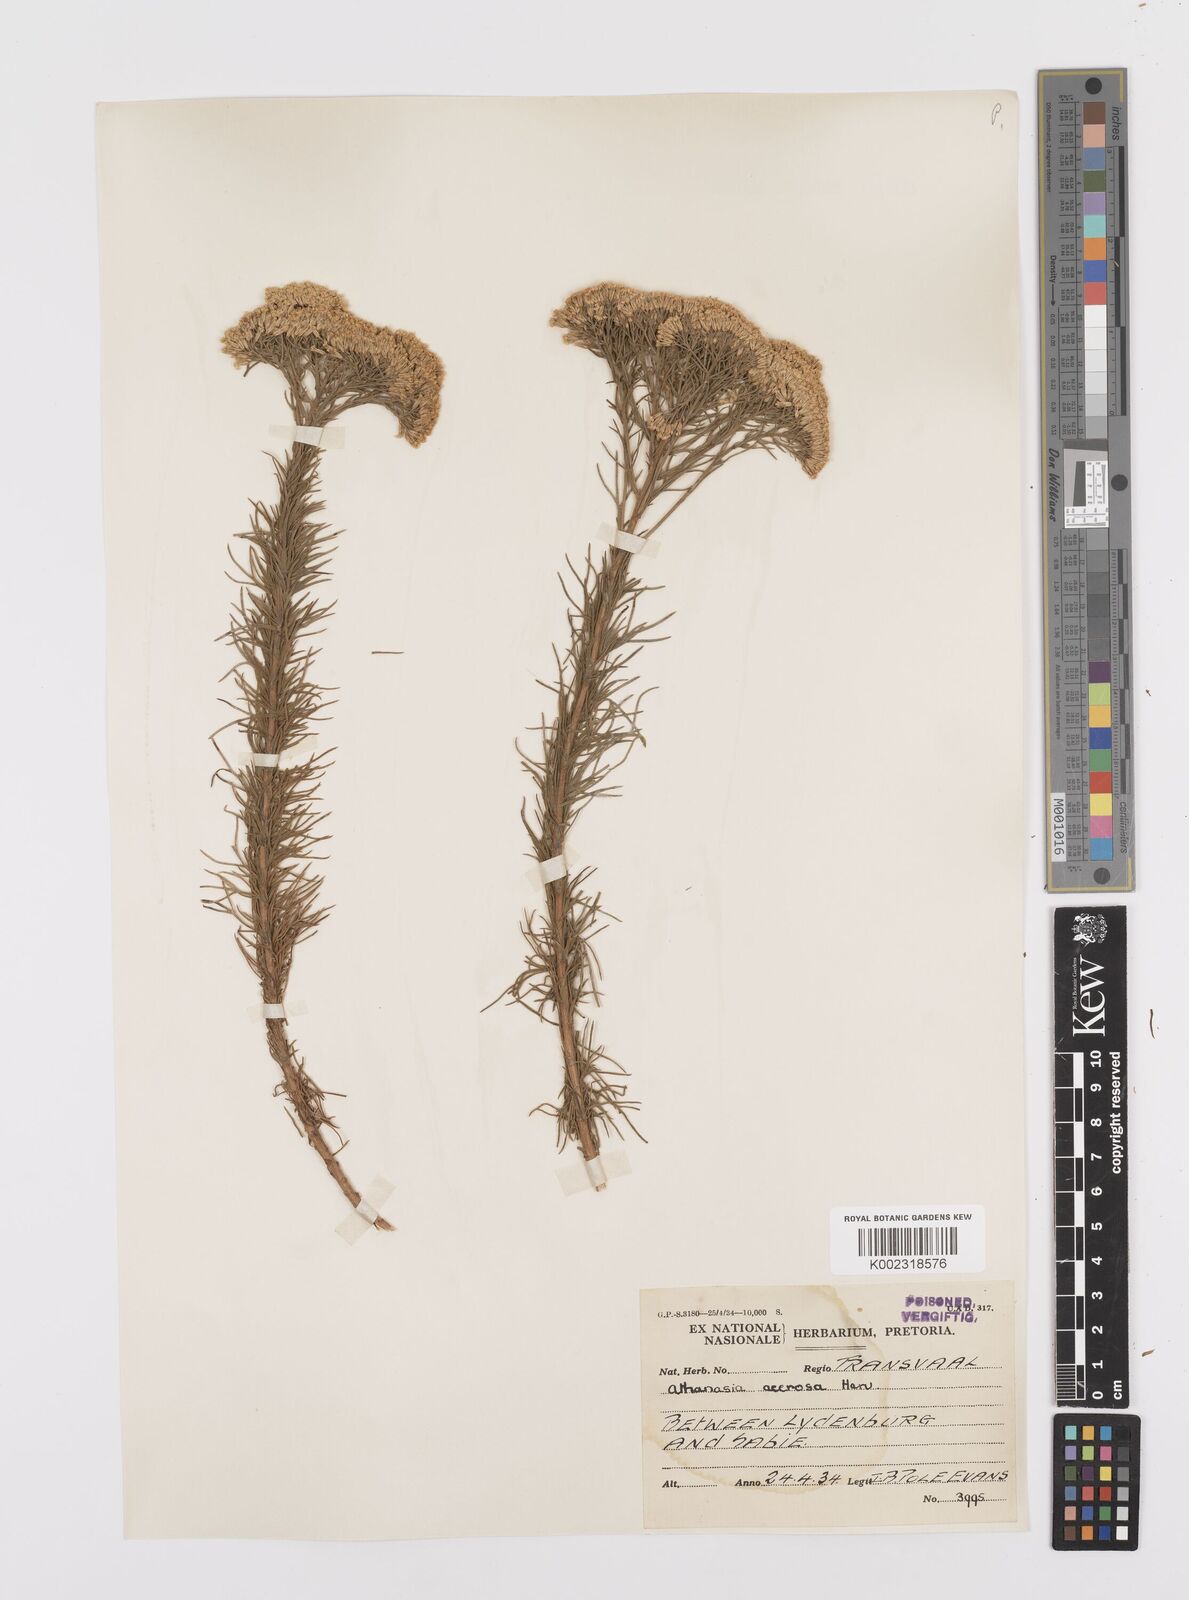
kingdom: Plantae
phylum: Tracheophyta
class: Magnoliopsida
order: Asterales
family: Asteraceae
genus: Phymaspermum
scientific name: Phymaspermum acerosum
